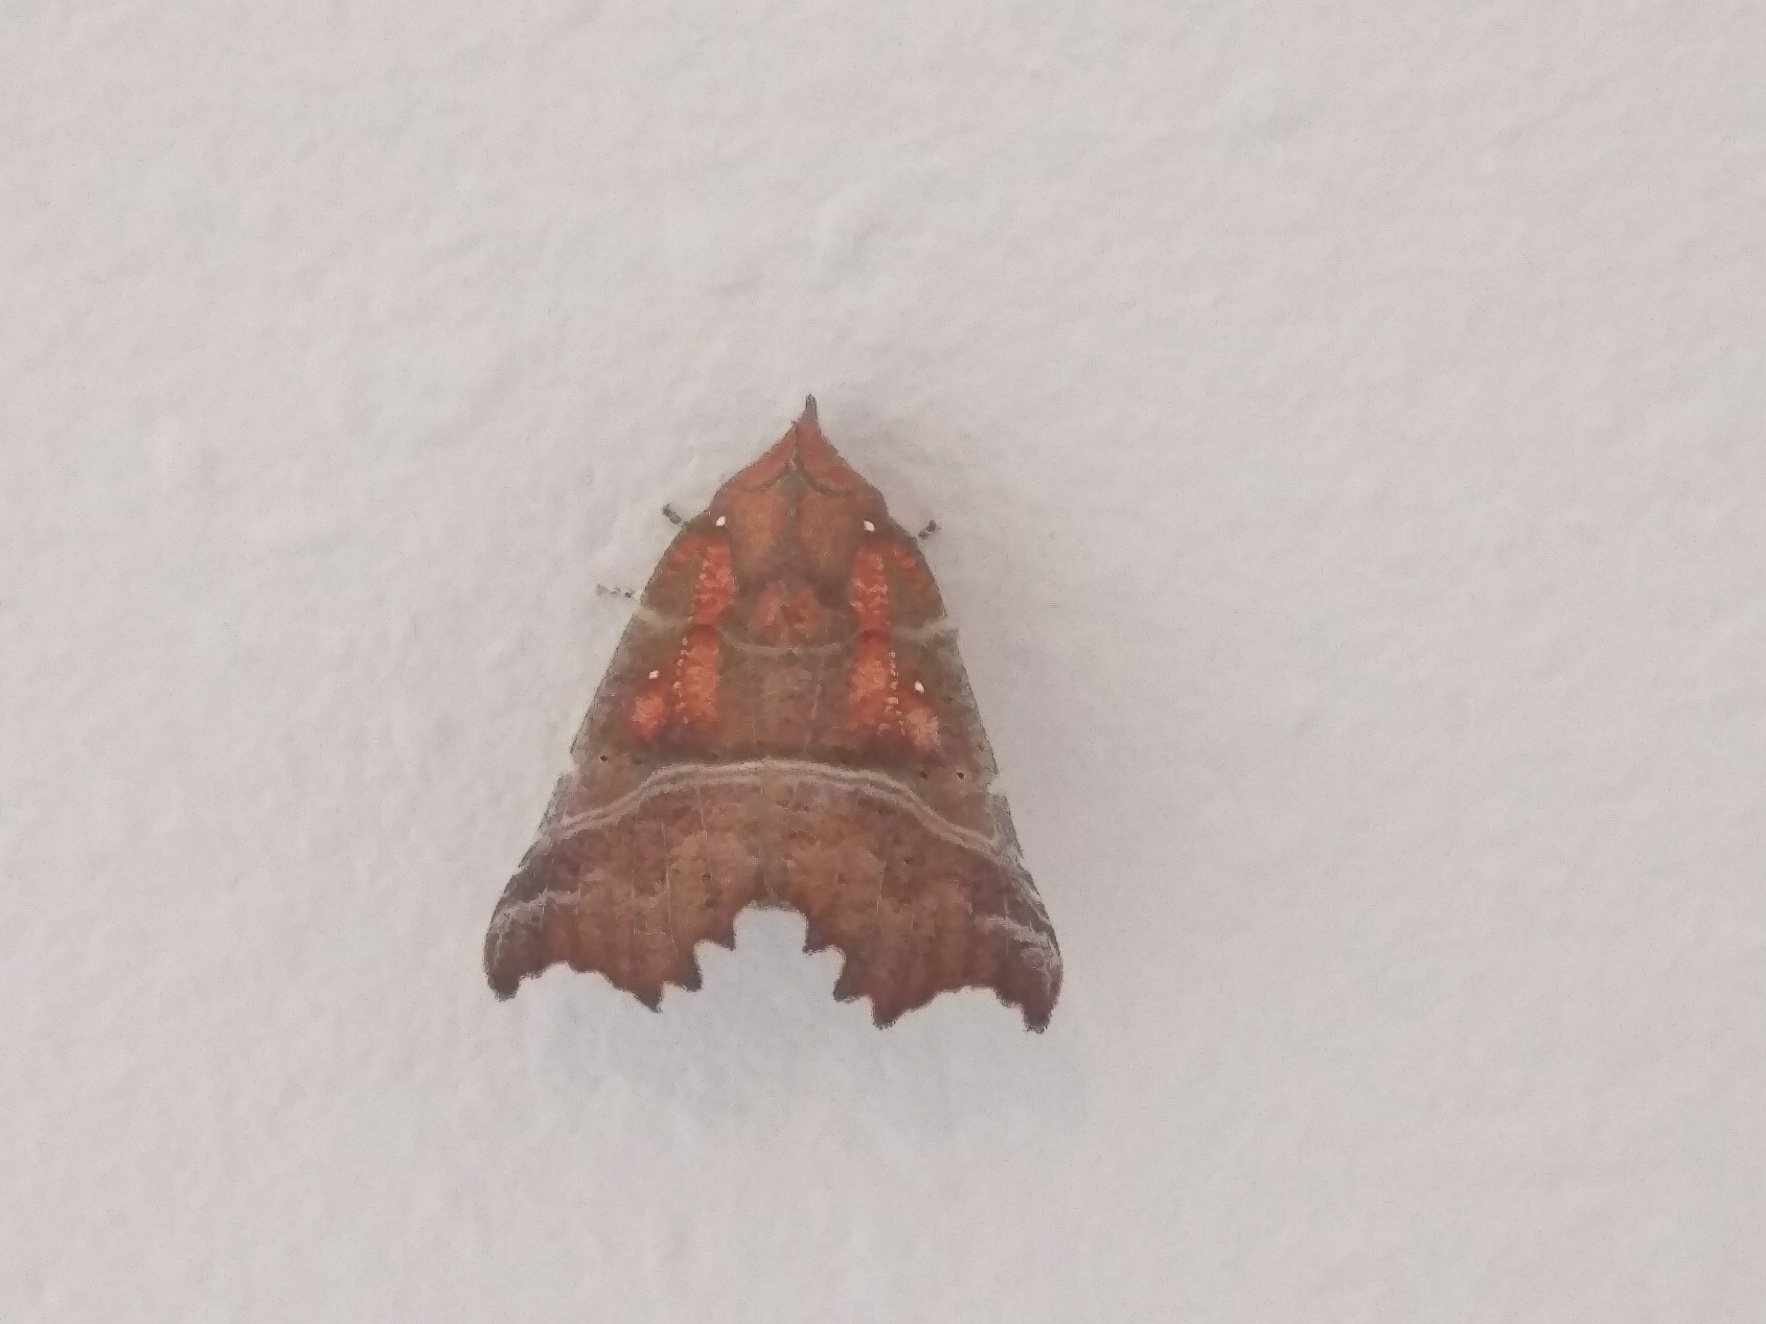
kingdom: Animalia
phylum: Arthropoda
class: Insecta
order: Lepidoptera
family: Erebidae
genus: Scoliopteryx
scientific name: Scoliopteryx libatrix
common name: Husmoderugle
